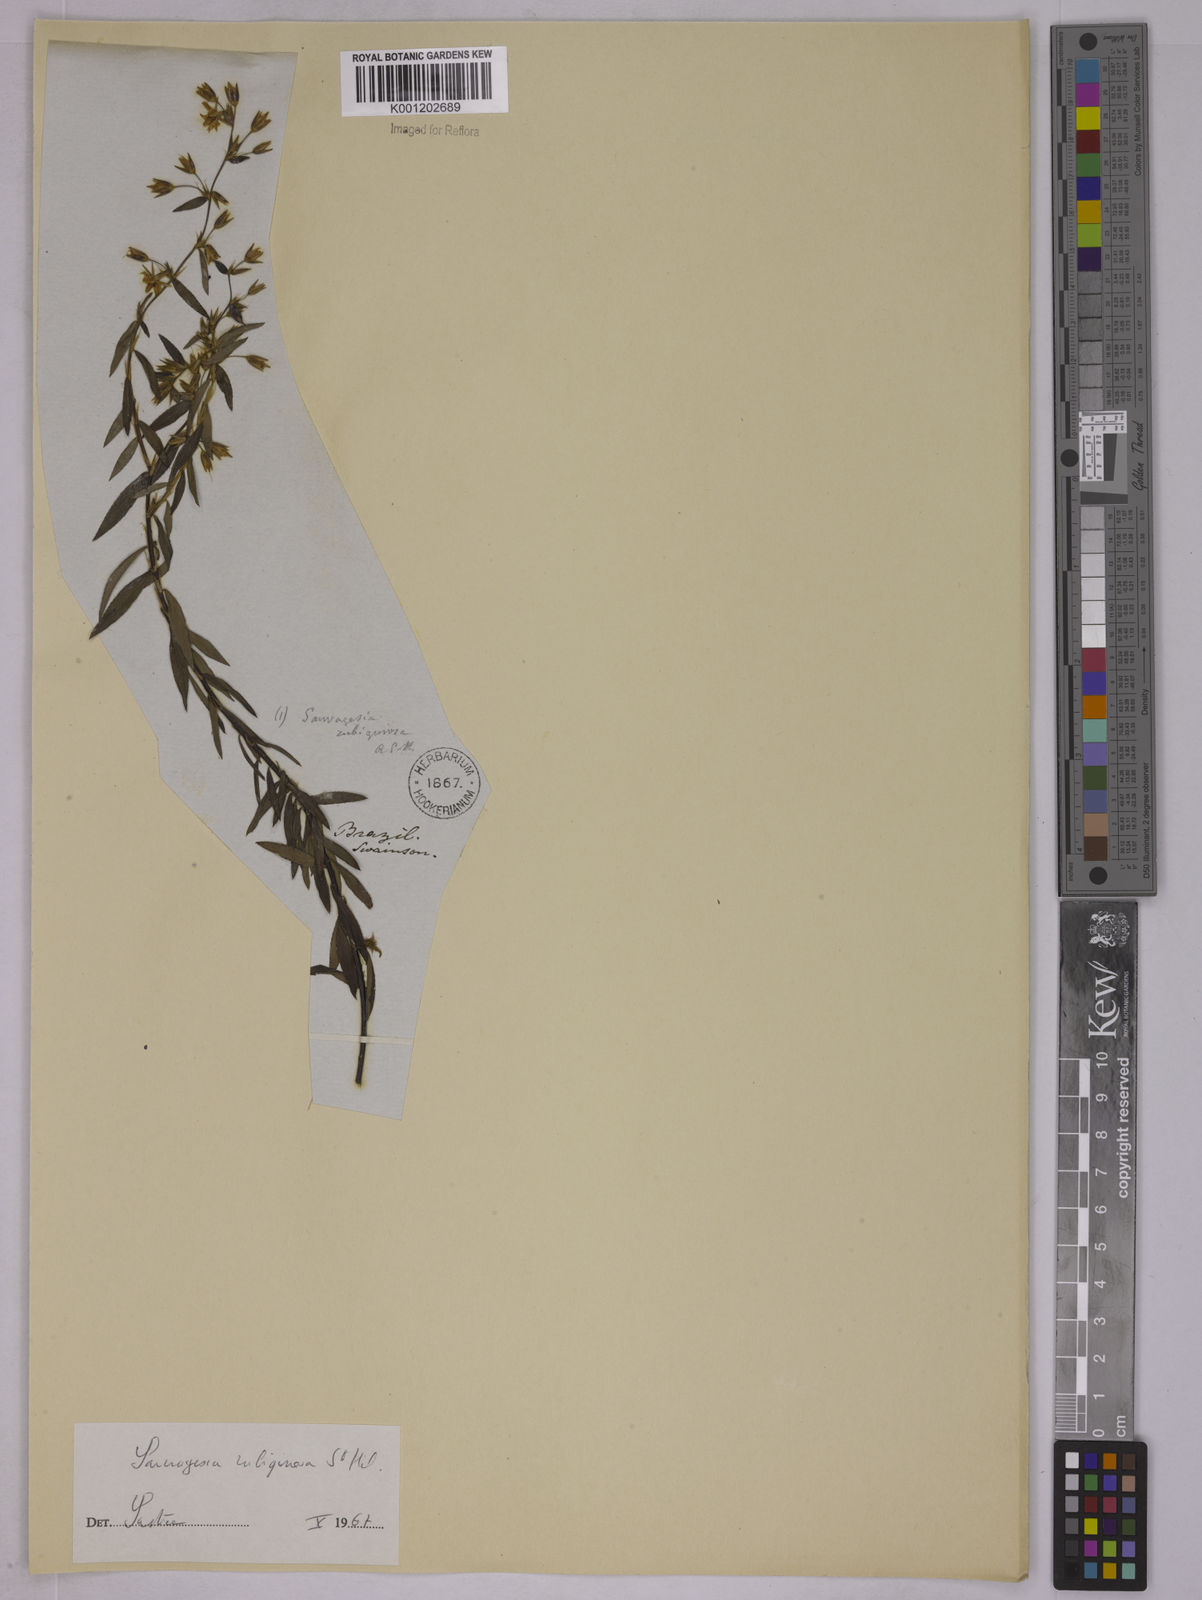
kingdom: Plantae
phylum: Tracheophyta
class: Magnoliopsida
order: Malpighiales
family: Ochnaceae
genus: Sauvagesia
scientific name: Sauvagesia erecta
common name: Creole tea
